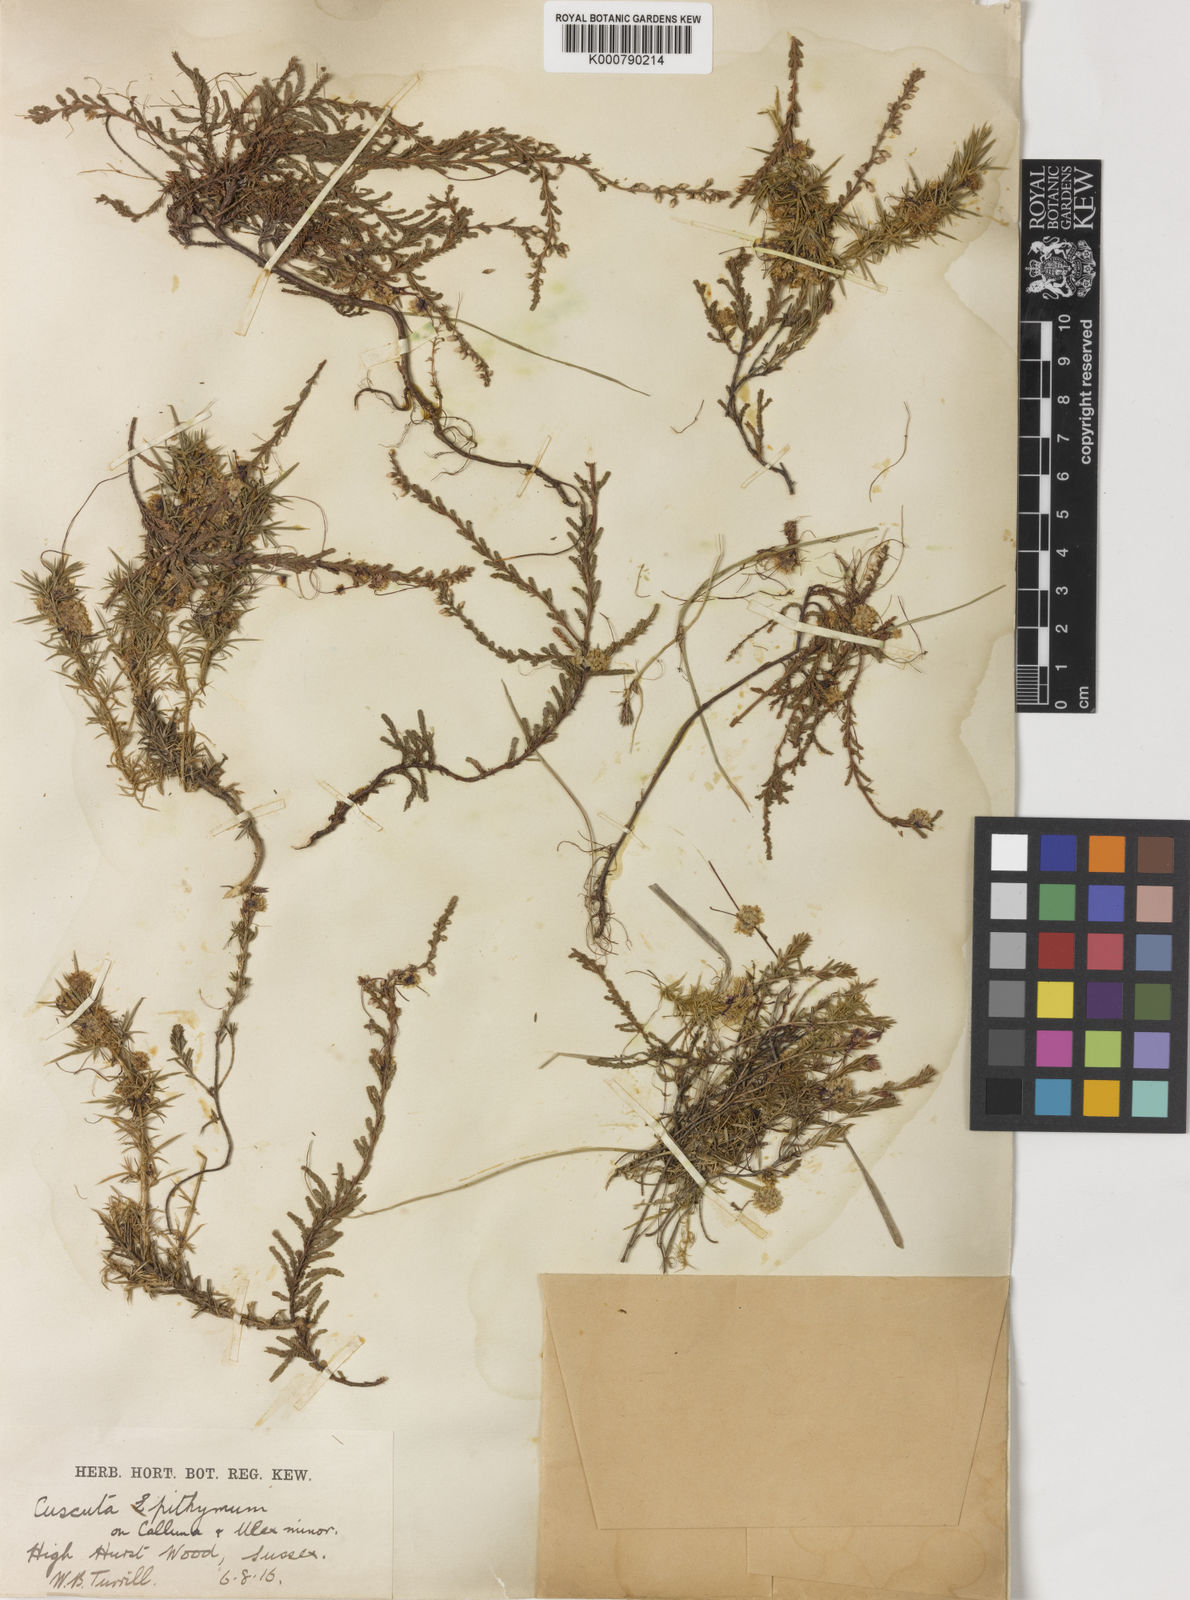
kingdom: Plantae
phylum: Tracheophyta
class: Magnoliopsida
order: Solanales
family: Convolvulaceae
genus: Cuscuta
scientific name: Cuscuta epithymum
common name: Clover dodder
